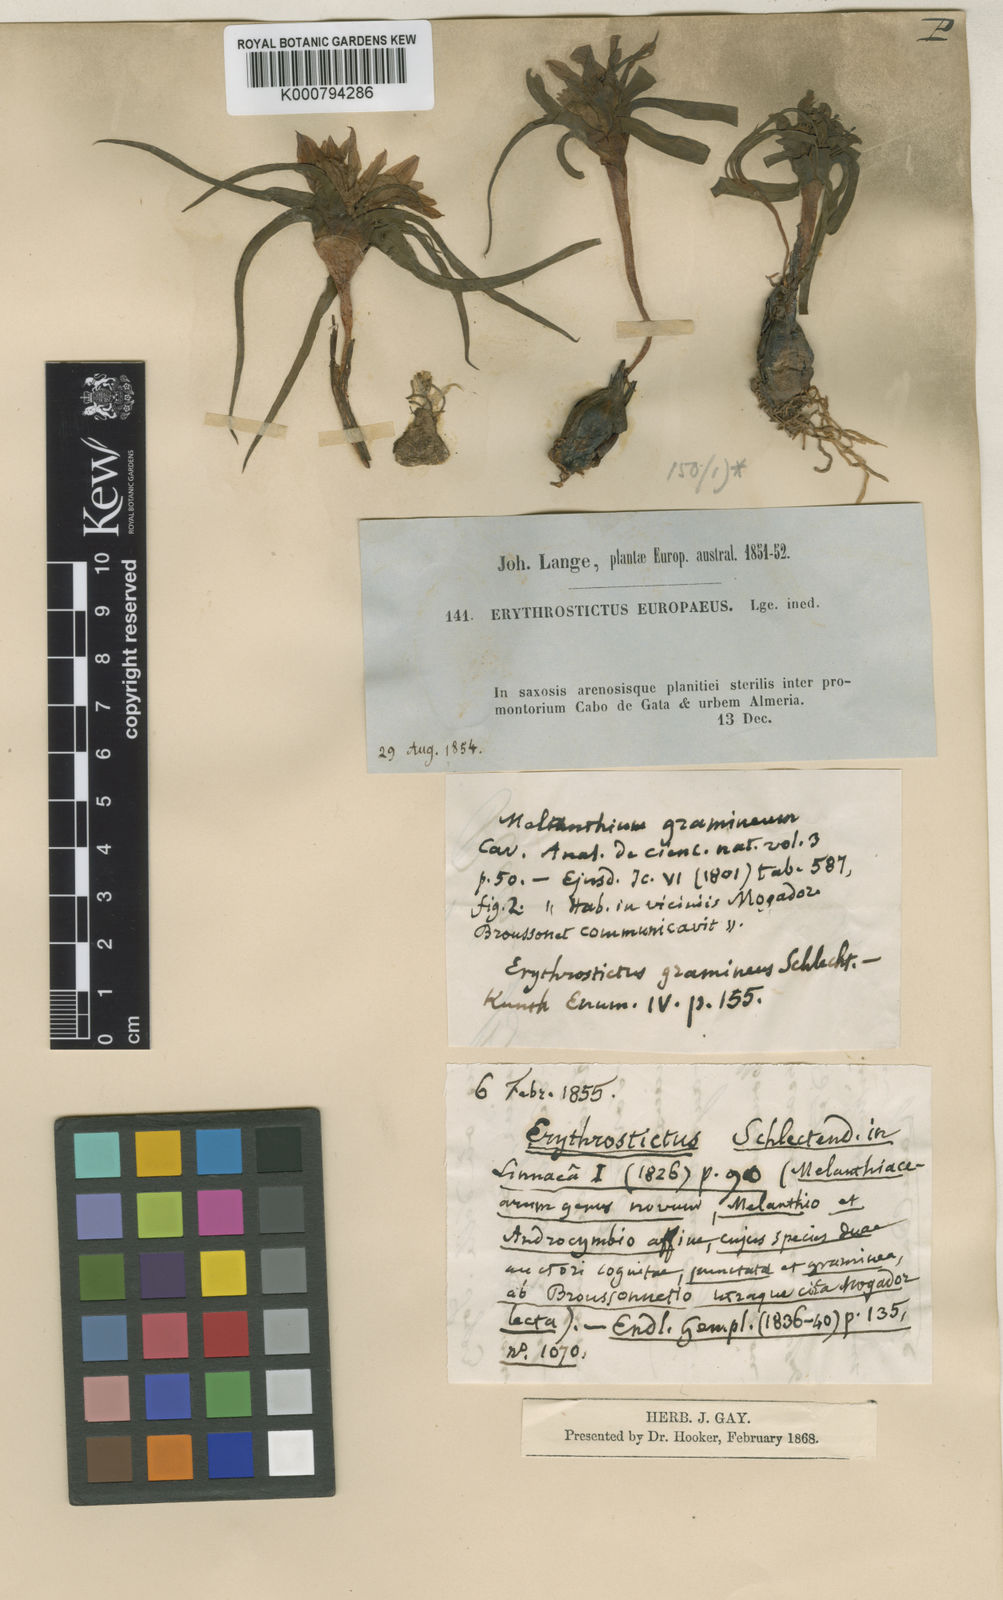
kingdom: Plantae
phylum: Tracheophyta
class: Liliopsida
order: Liliales
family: Colchicaceae
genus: Colchicum
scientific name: Colchicum capense
